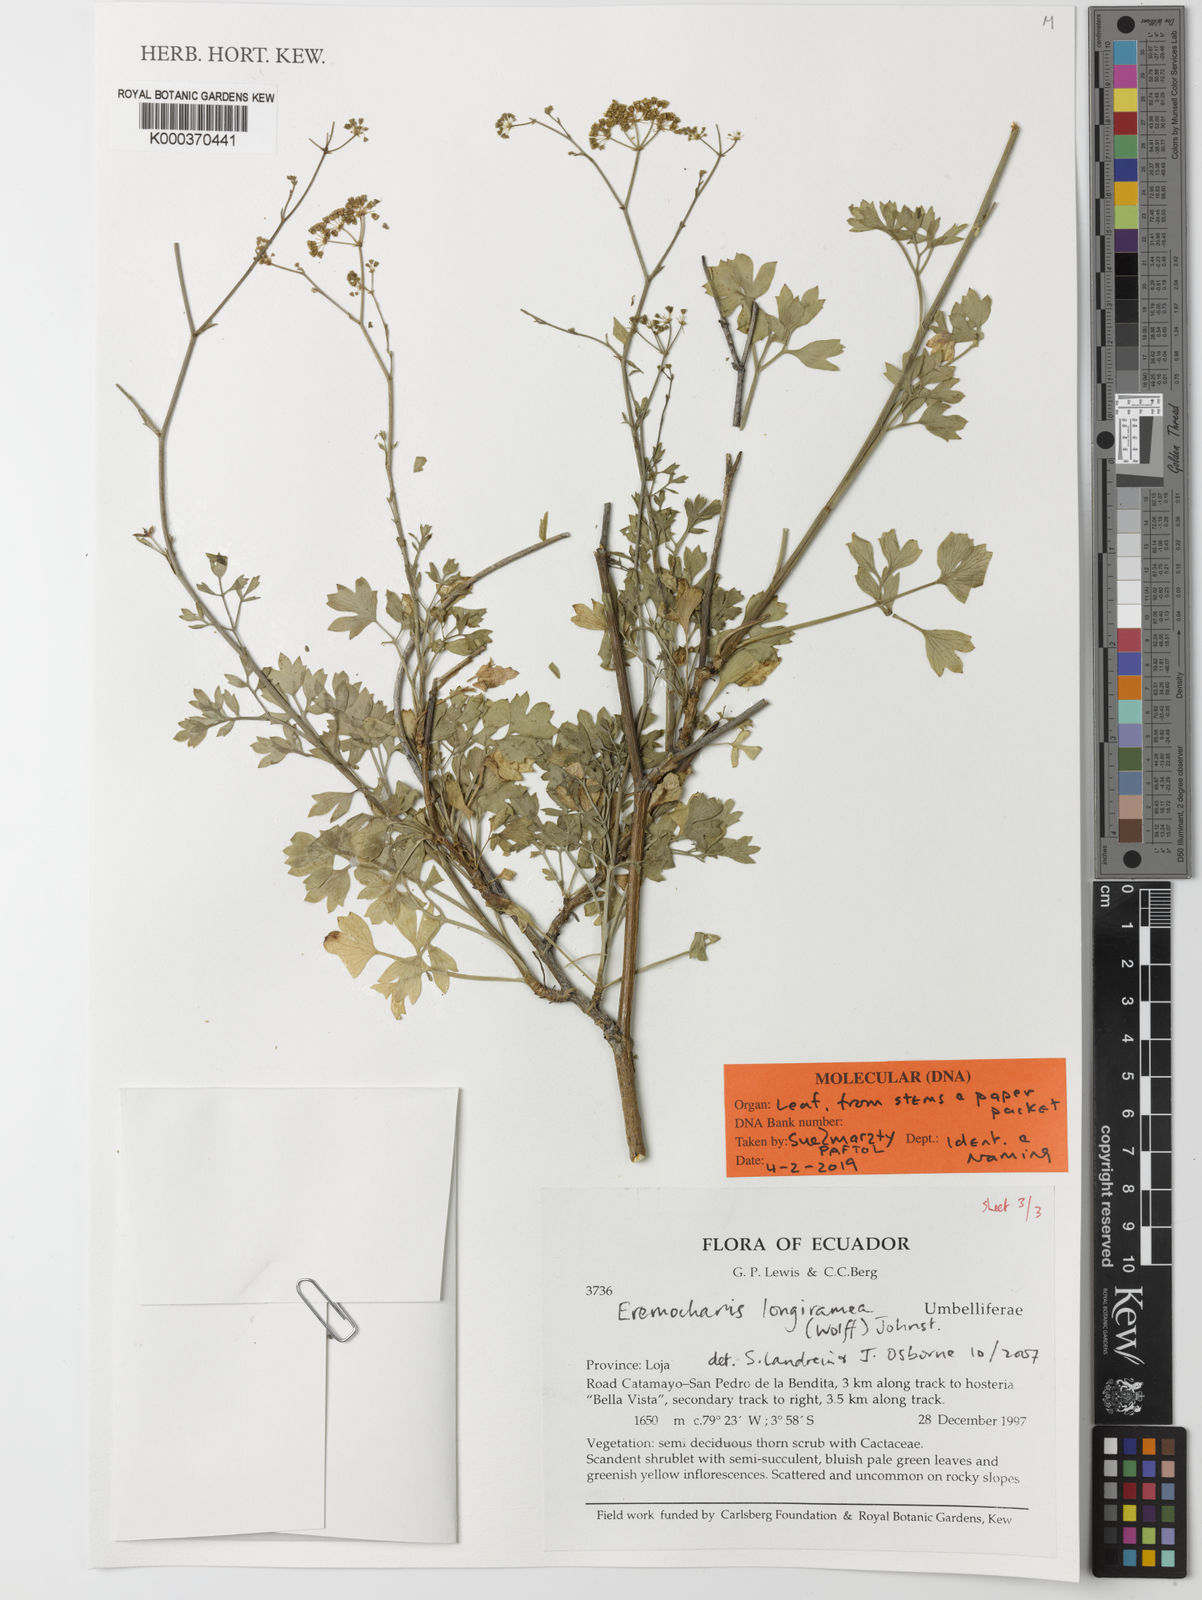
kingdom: Plantae
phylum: Tracheophyta
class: Magnoliopsida
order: Apiales
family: Apiaceae
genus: Eremocharis
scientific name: Eremocharis longiramea
